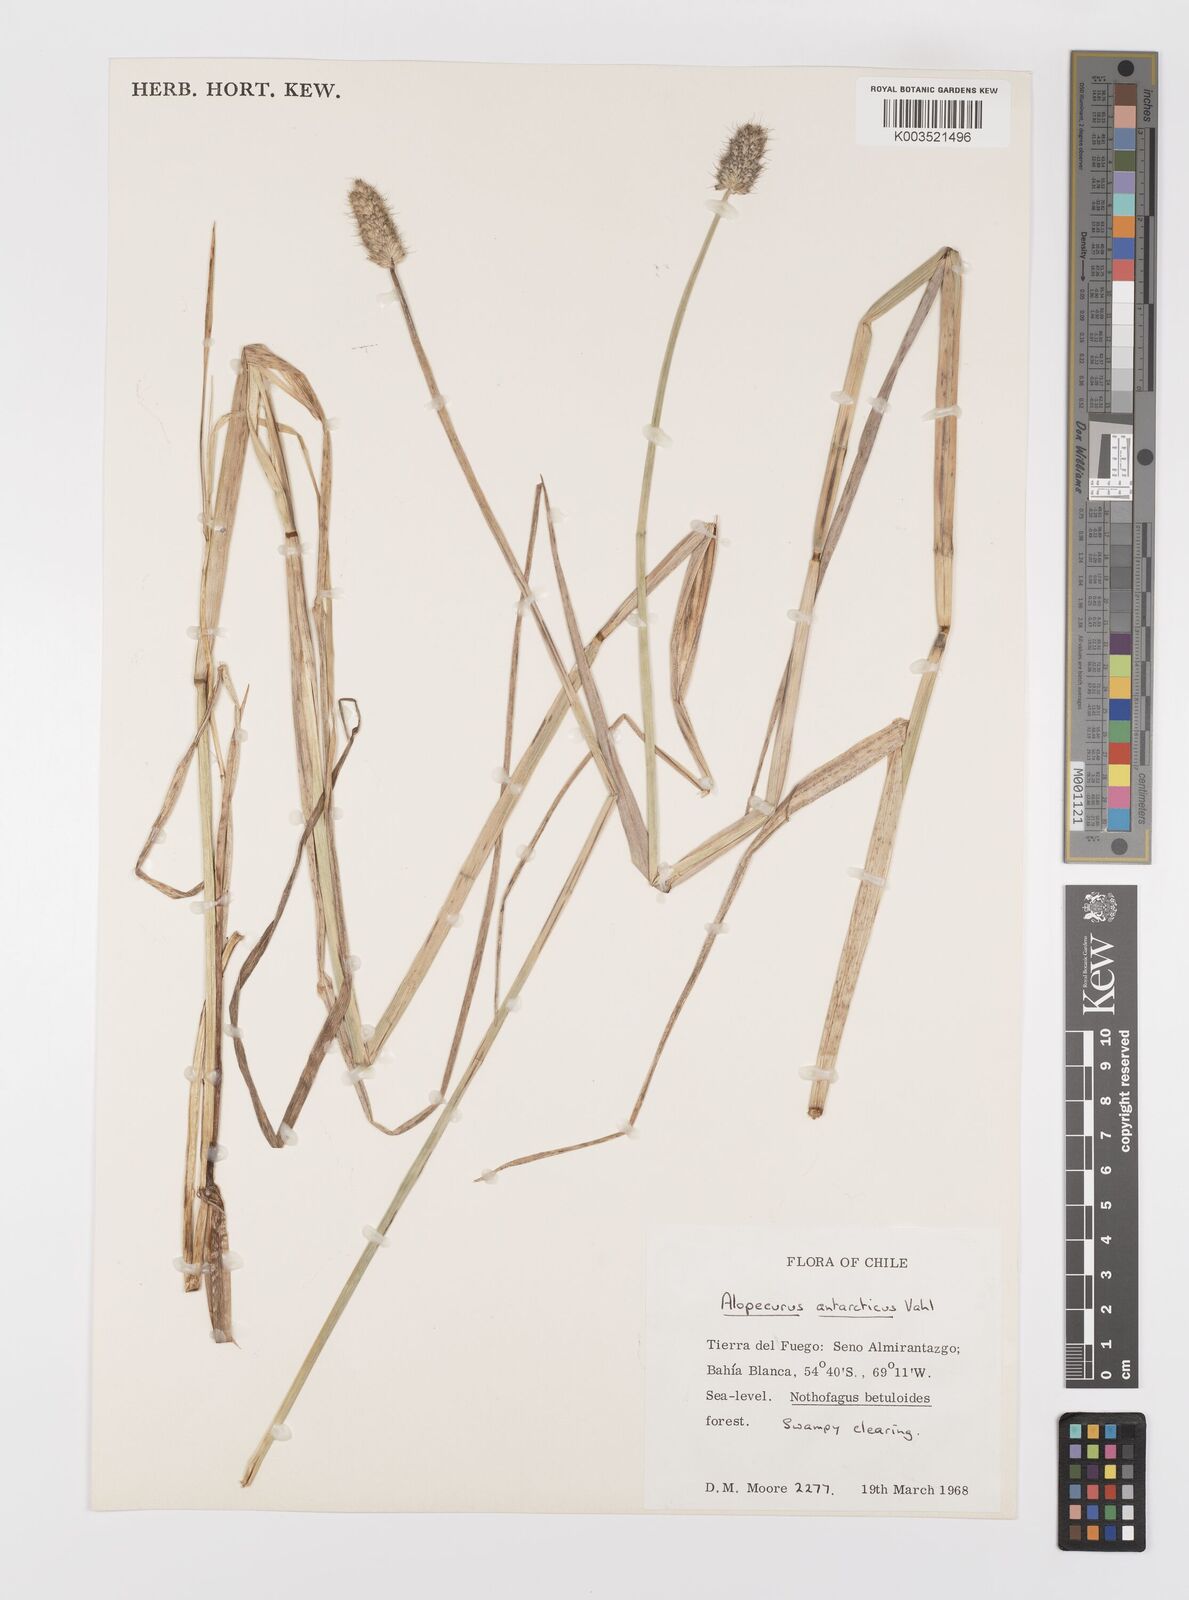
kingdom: Plantae
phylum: Tracheophyta
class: Liliopsida
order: Poales
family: Poaceae
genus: Alopecurus
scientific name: Alopecurus magellanicus
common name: Alpine foxtail
